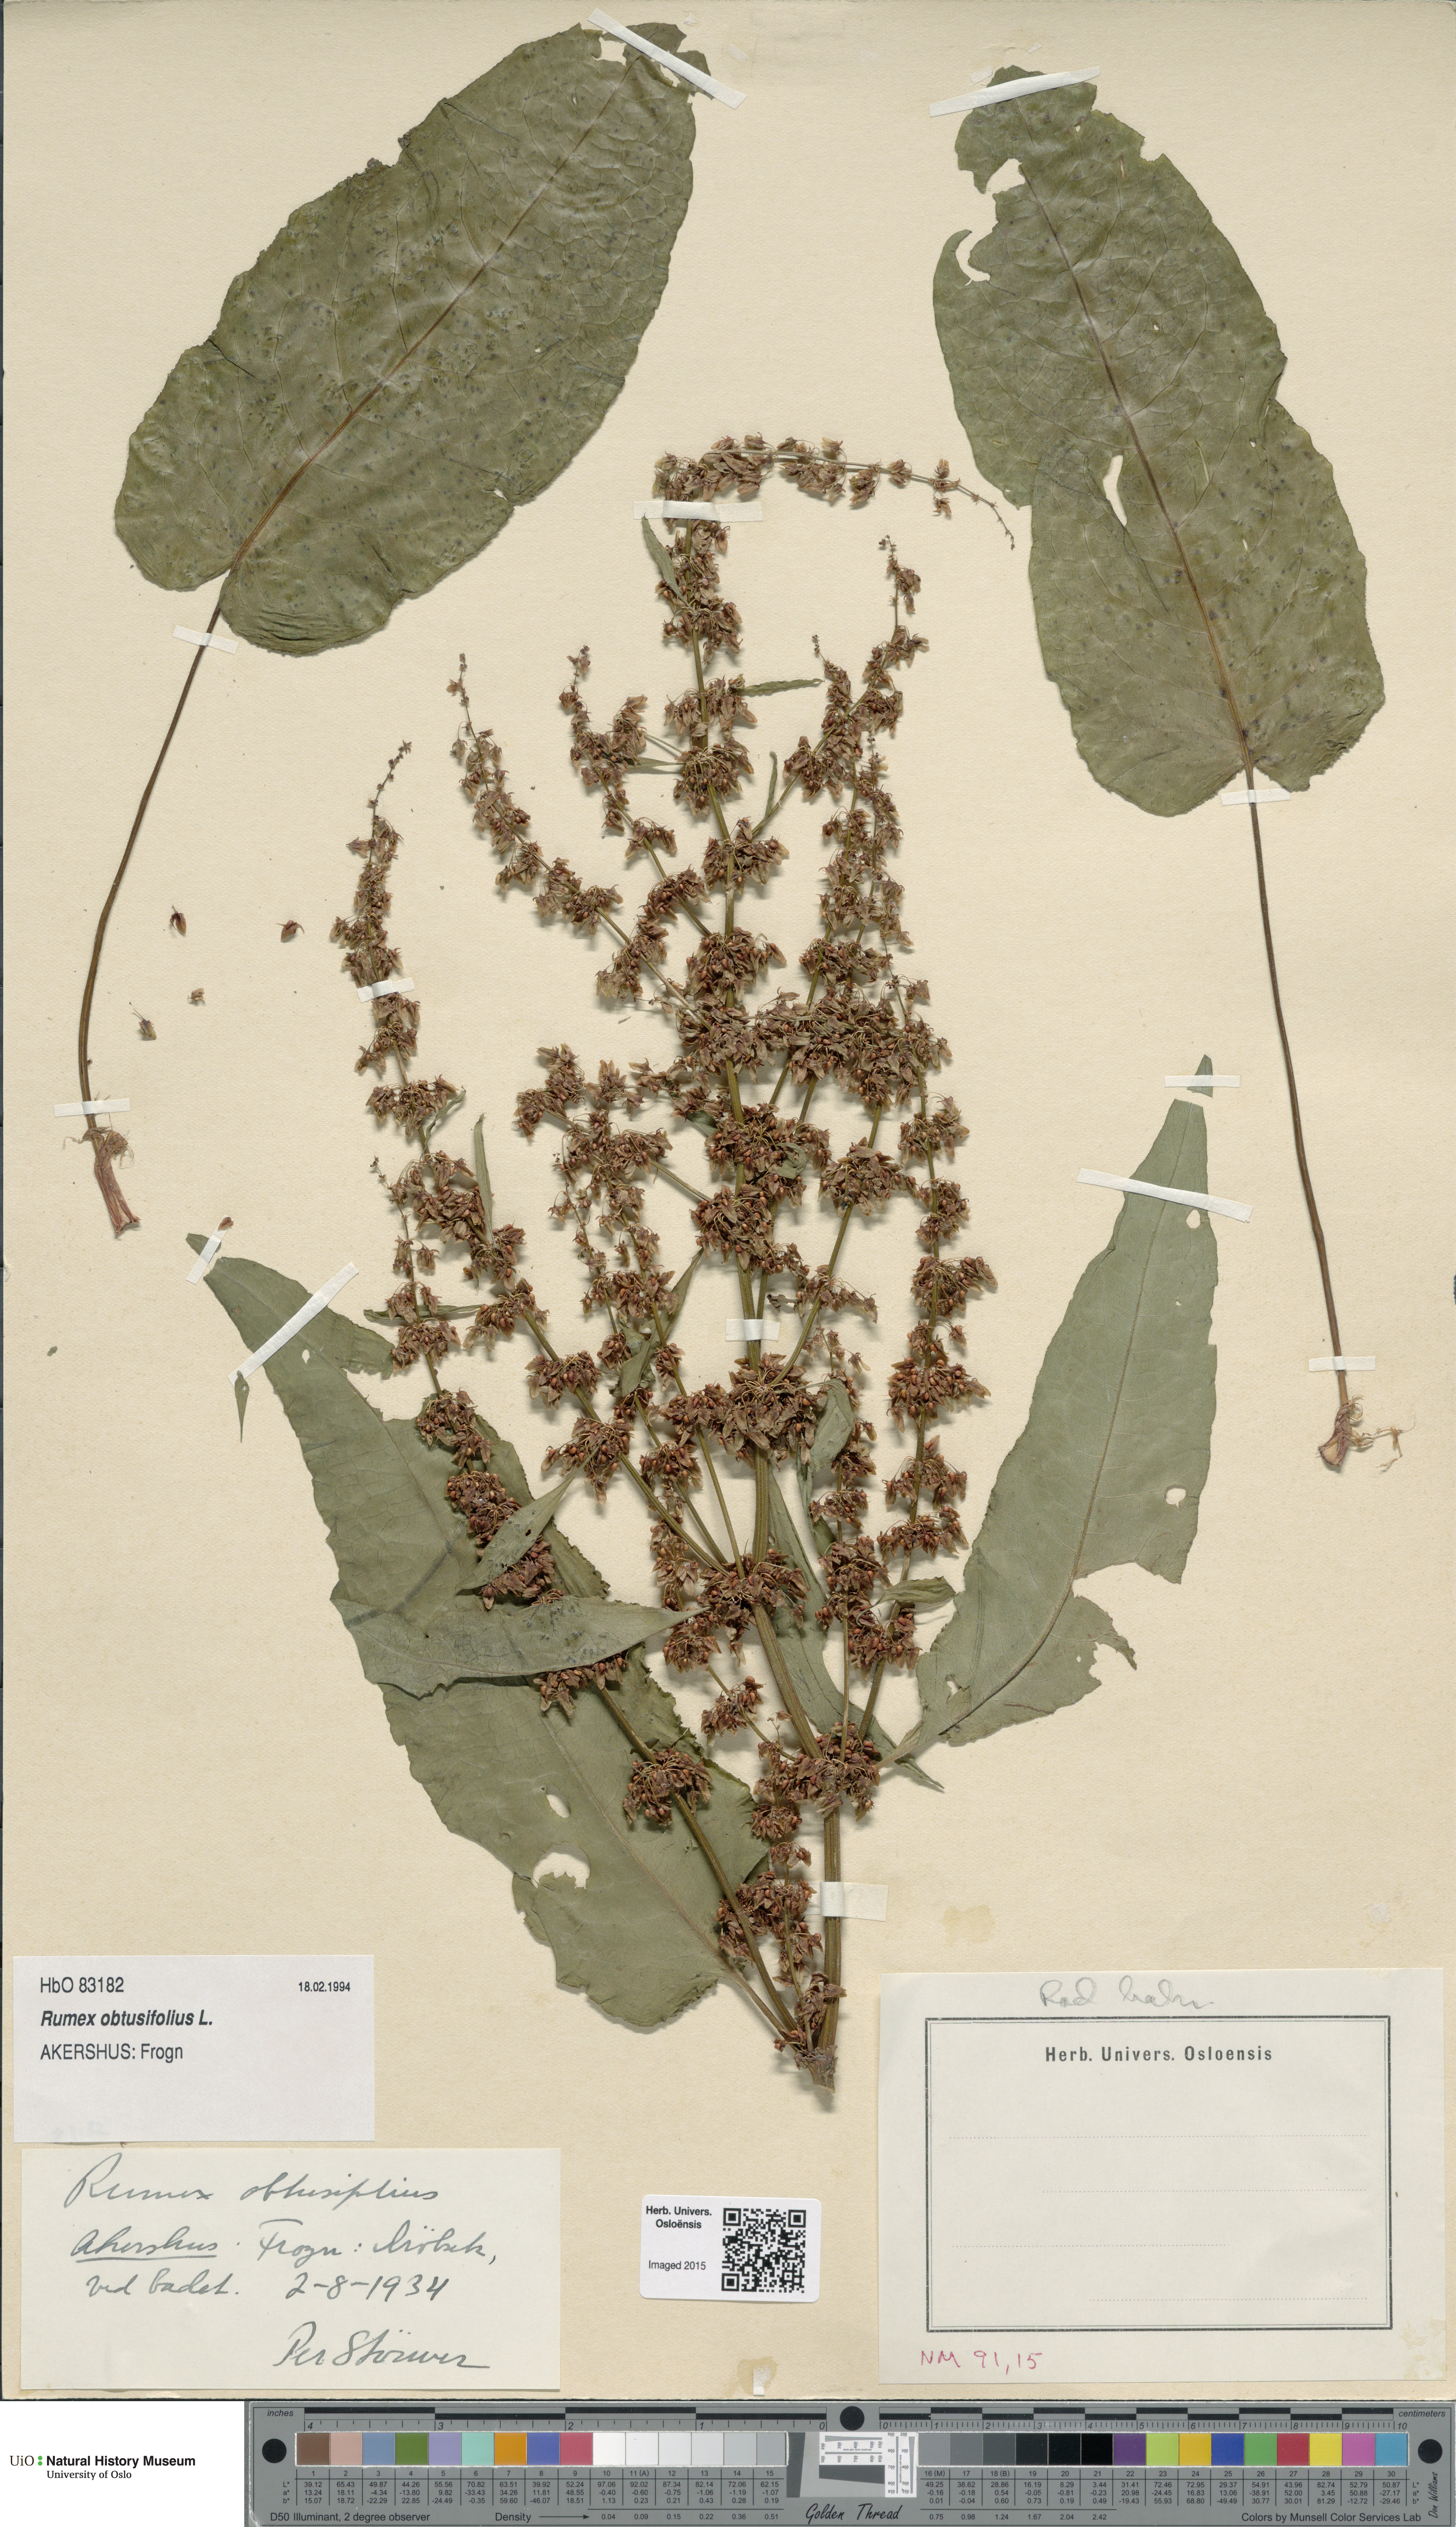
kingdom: Plantae
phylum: Tracheophyta
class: Magnoliopsida
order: Caryophyllales
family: Polygonaceae
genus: Rumex
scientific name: Rumex obtusifolius
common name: Bitter dock
